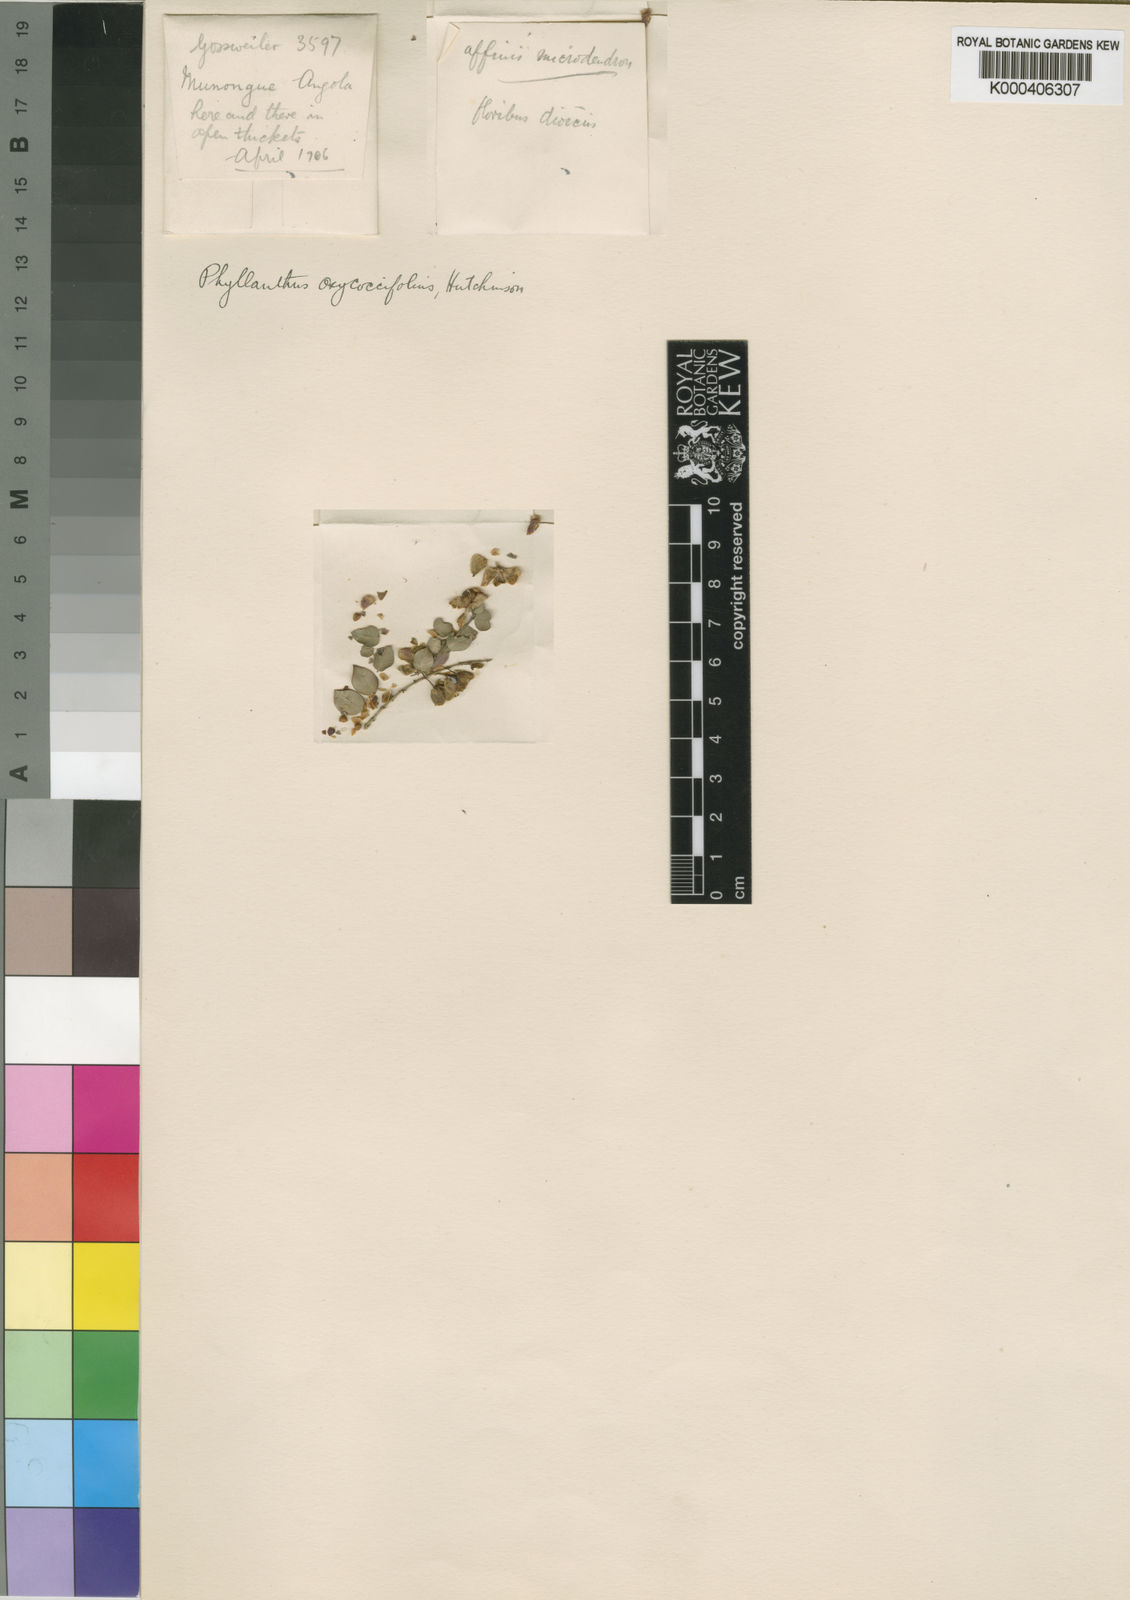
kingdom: Plantae
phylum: Tracheophyta
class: Magnoliopsida
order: Malpighiales
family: Phyllanthaceae
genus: Phyllanthus
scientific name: Phyllanthus oxycoccifolius
